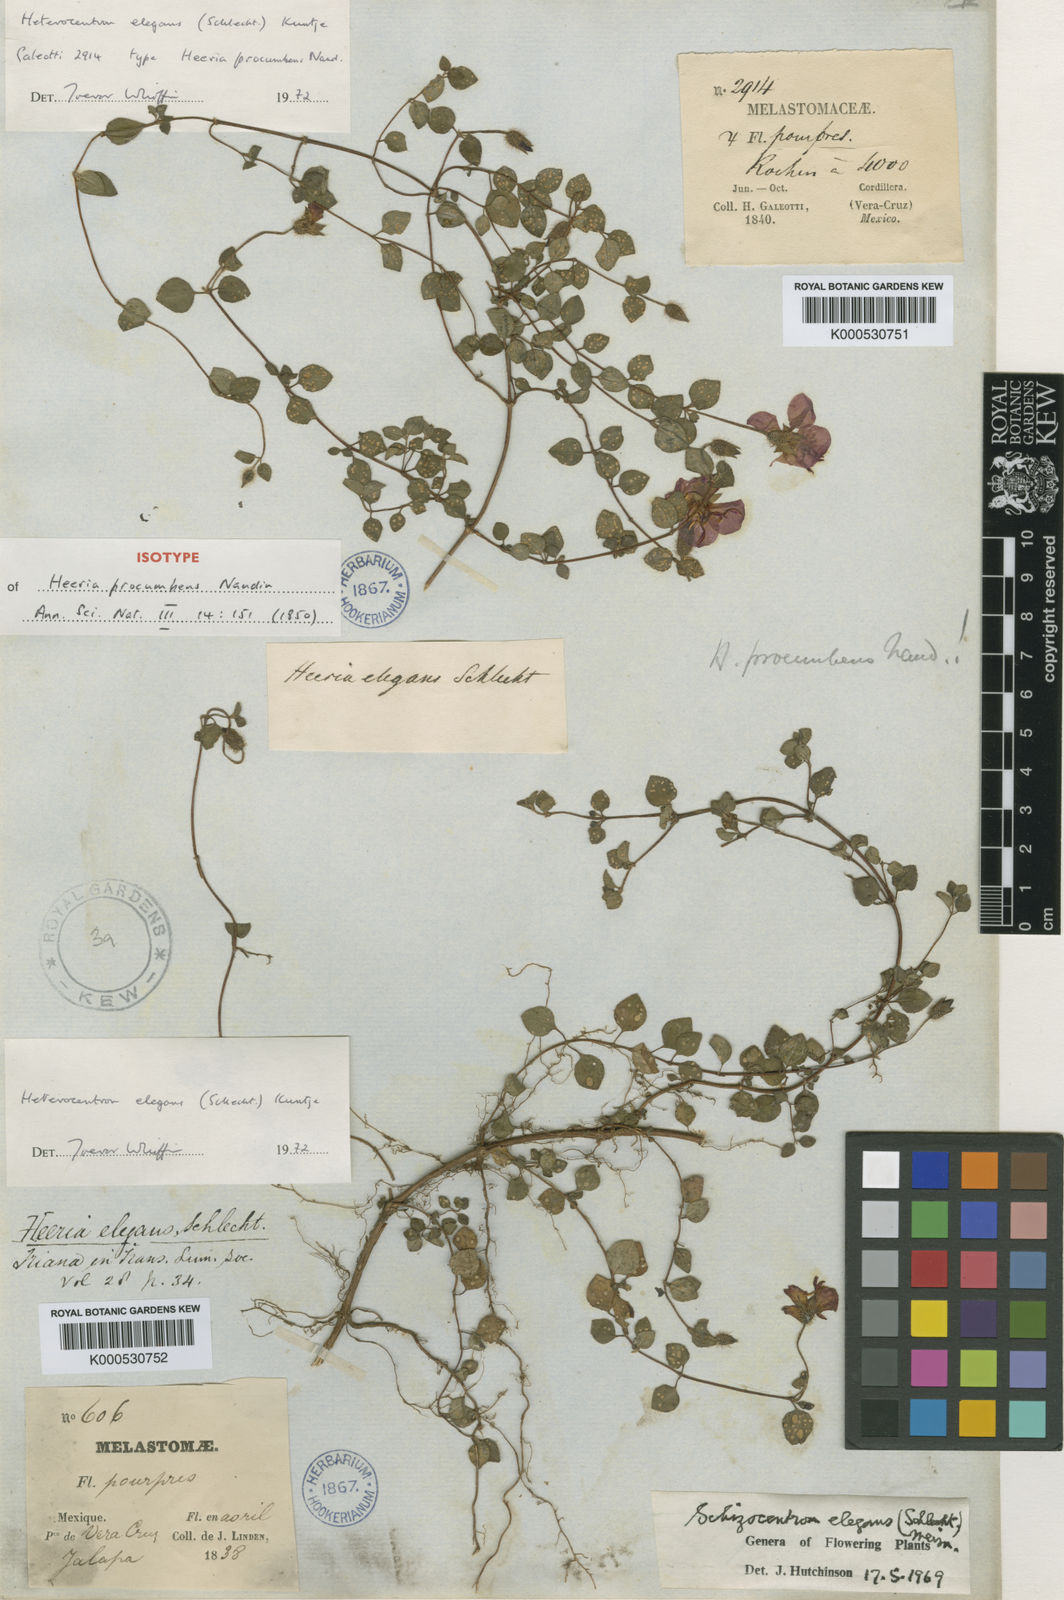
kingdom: Plantae
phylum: Tracheophyta
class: Magnoliopsida
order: Myrtales
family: Melastomataceae
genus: Heterocentron
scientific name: Heterocentron elegans
